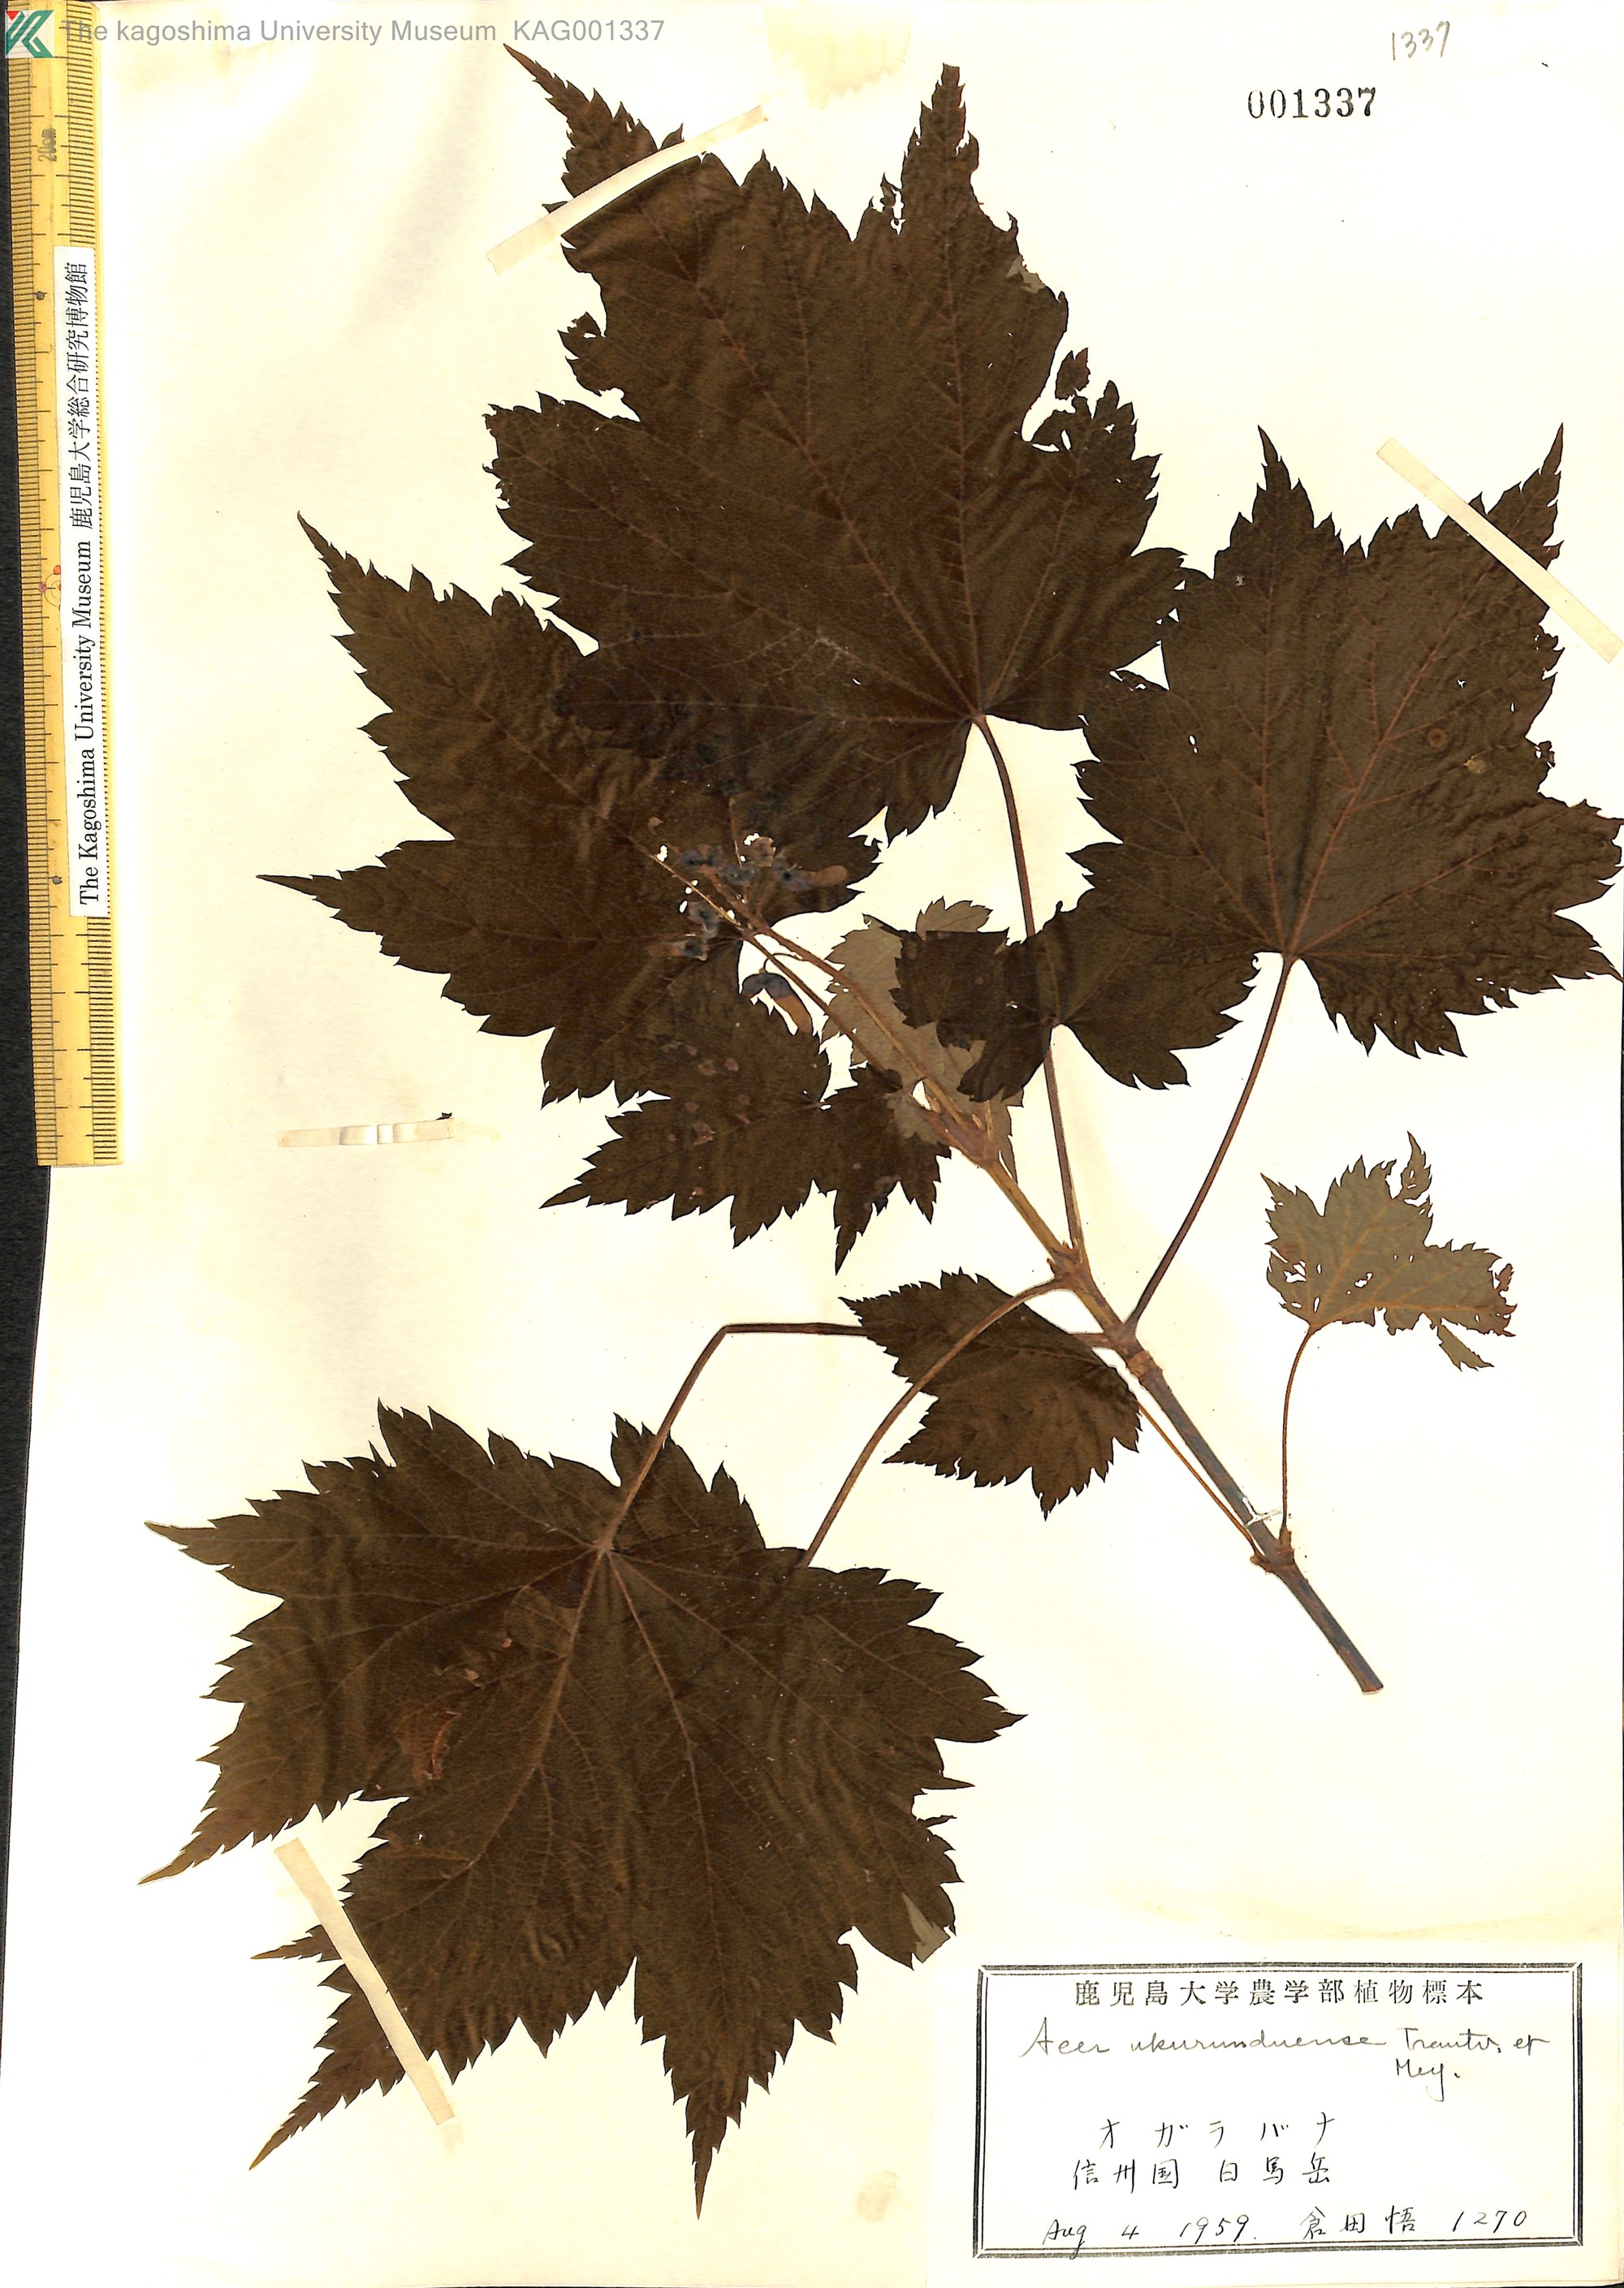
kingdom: Plantae
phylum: Tracheophyta
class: Magnoliopsida
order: Sapindales
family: Sapindaceae
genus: Acer
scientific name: Acer ukurunduense
